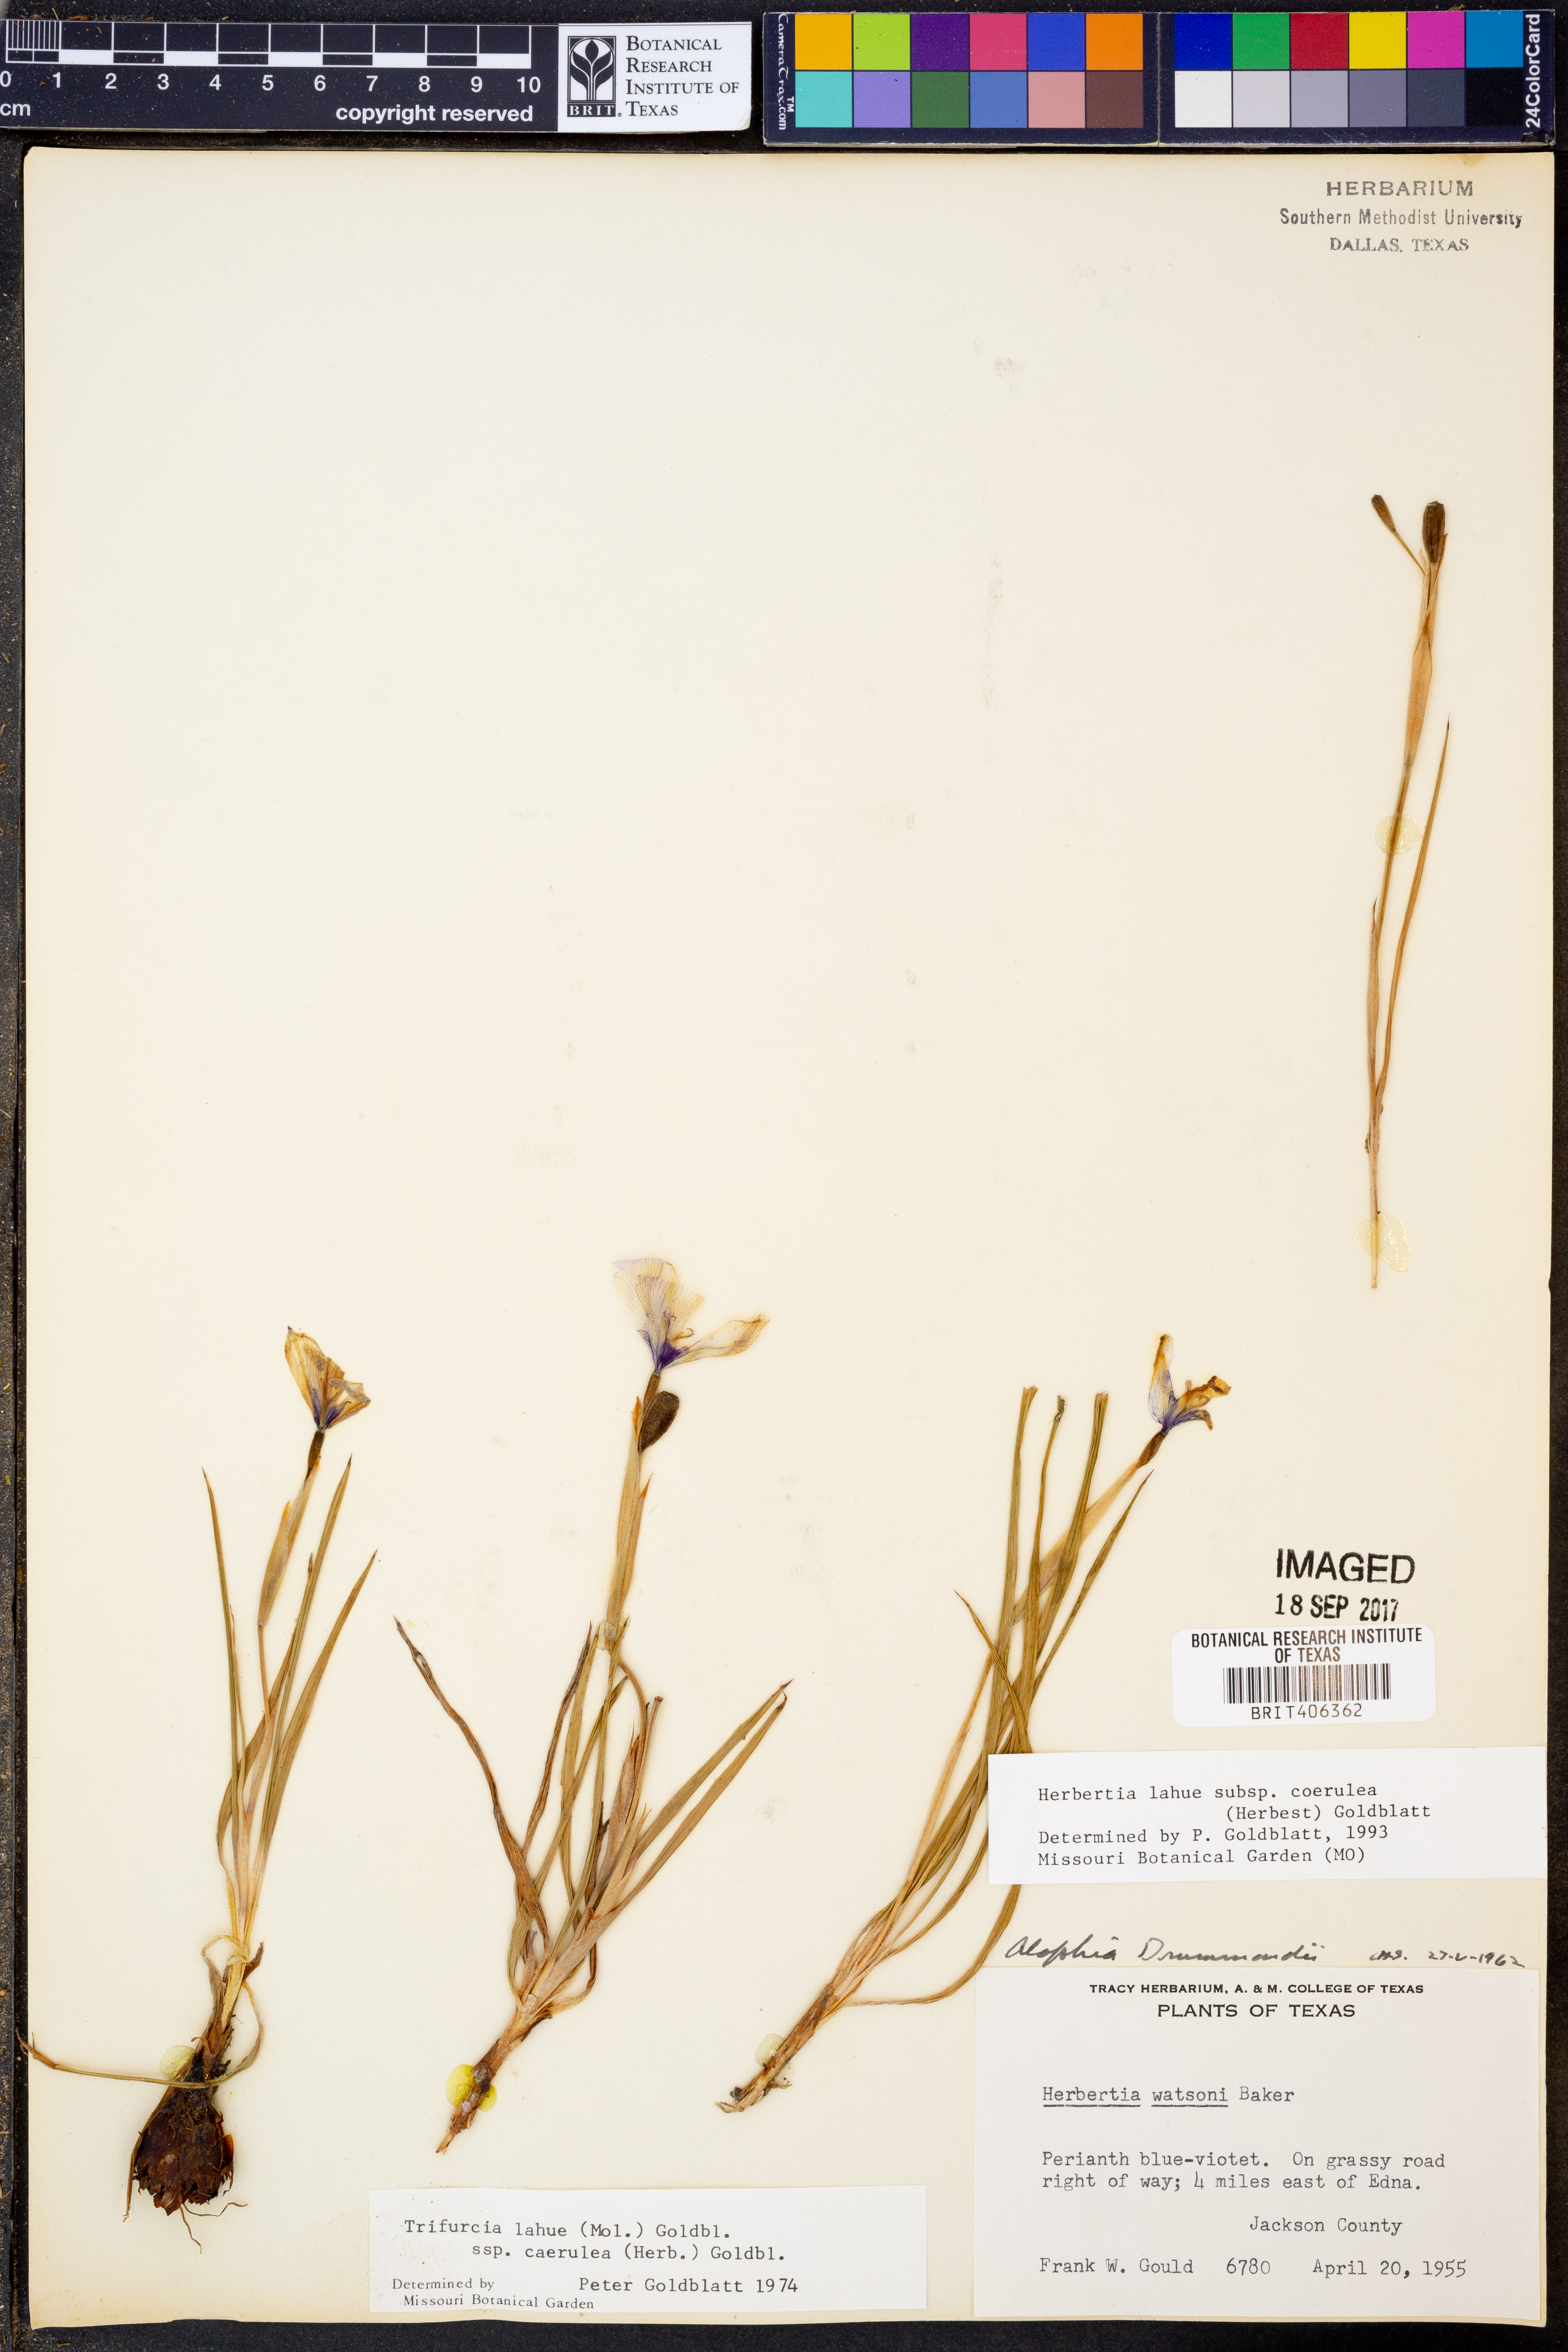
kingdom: Plantae
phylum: Tracheophyta
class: Liliopsida
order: Asparagales
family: Iridaceae
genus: Herbertia
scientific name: Herbertia lahue
